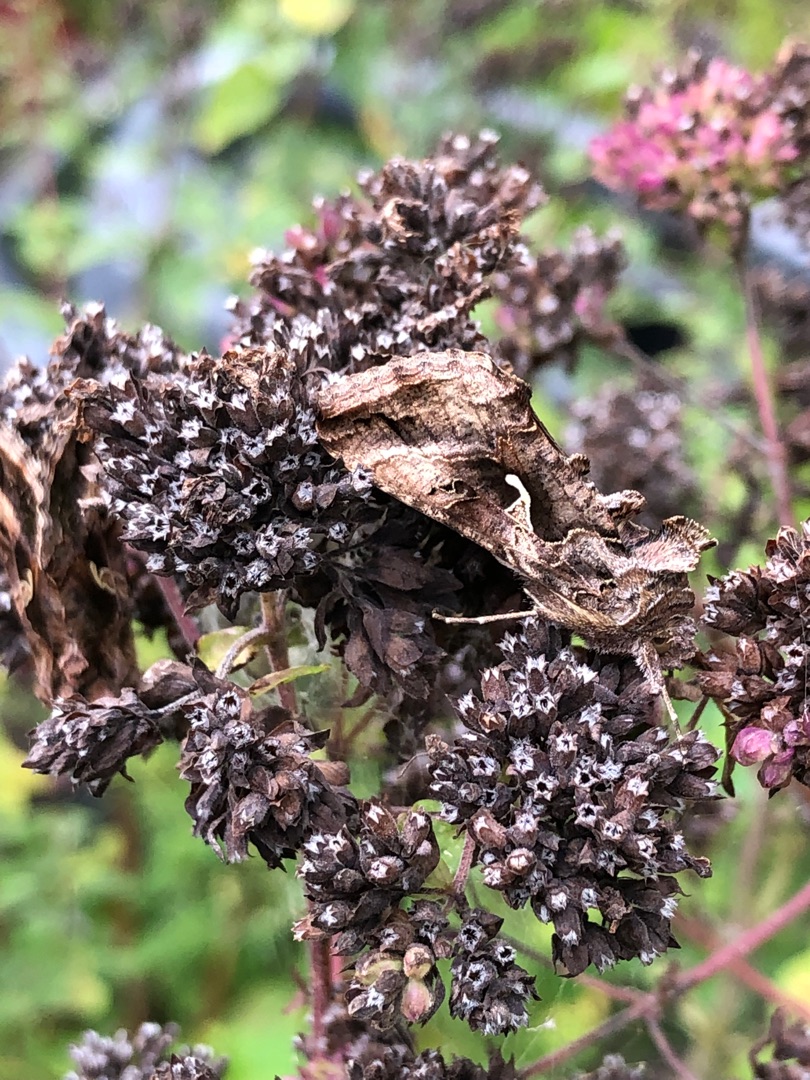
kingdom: Animalia
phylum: Arthropoda
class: Insecta
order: Lepidoptera
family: Noctuidae
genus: Autographa
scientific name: Autographa gamma
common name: Gammaugle
